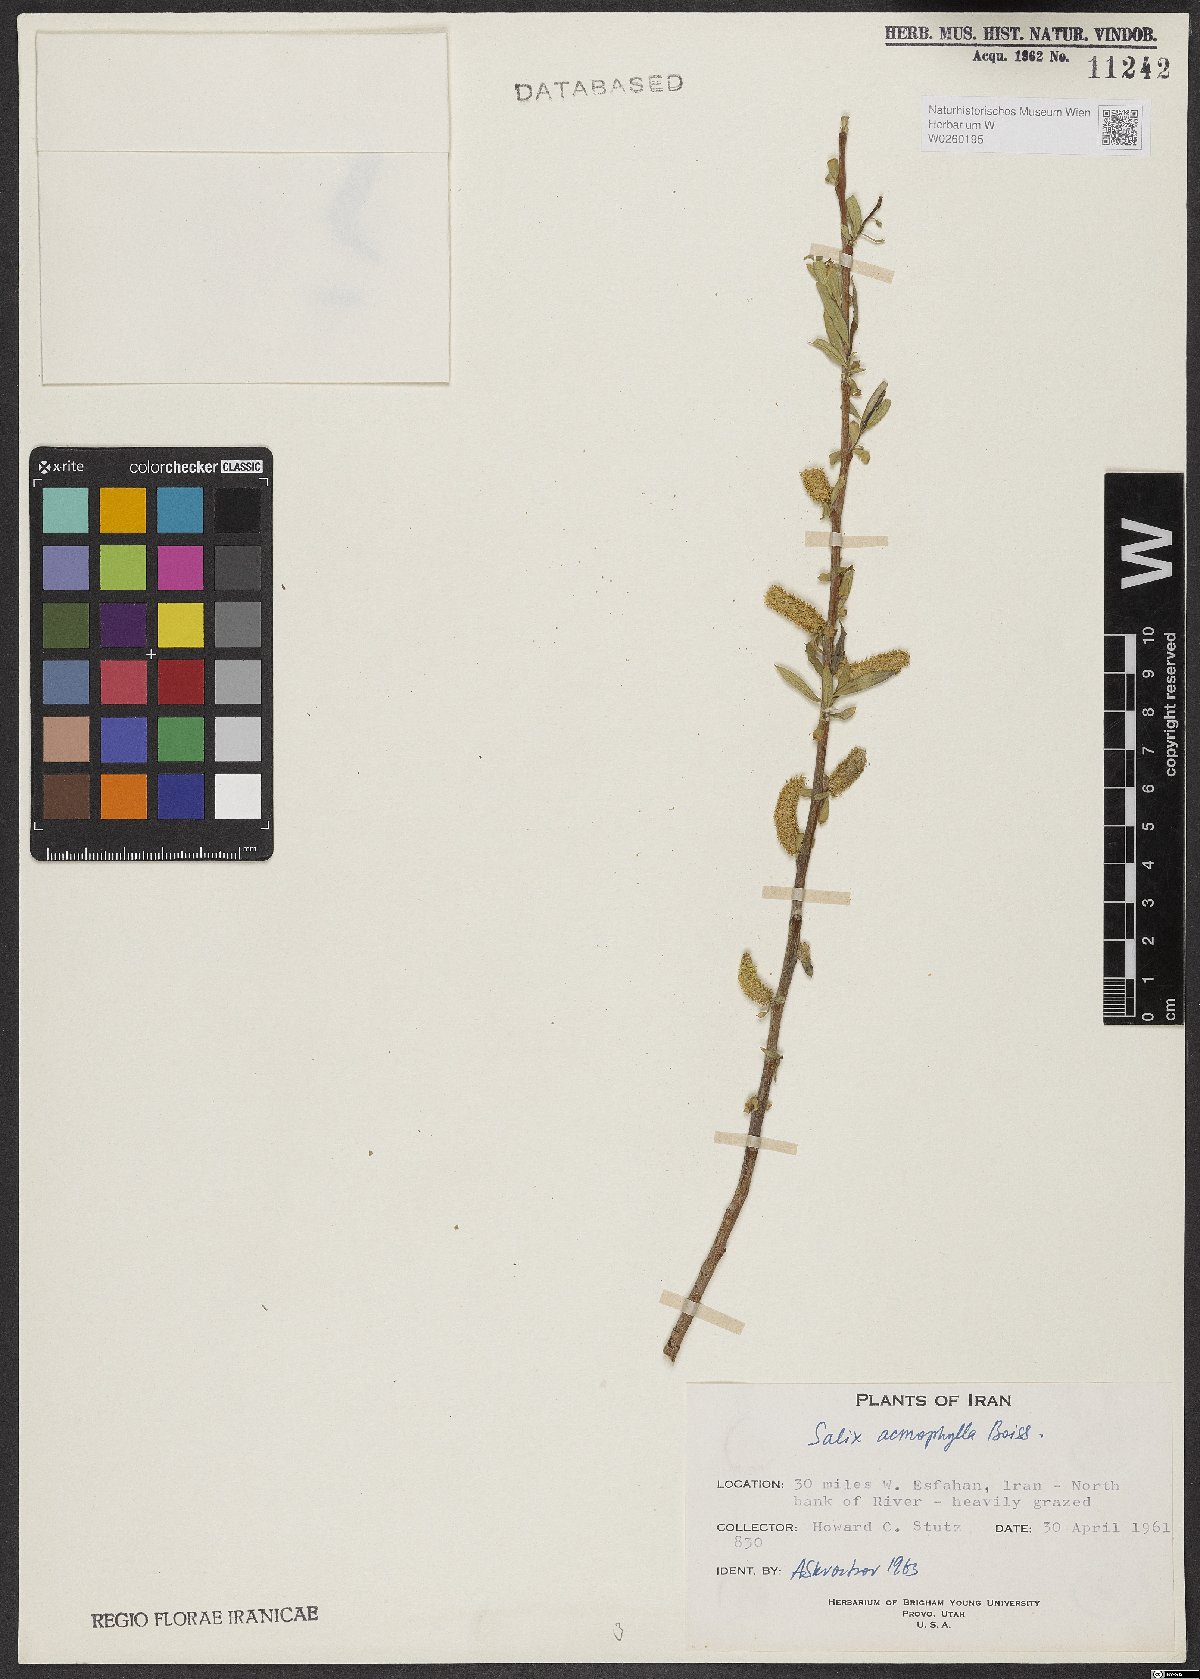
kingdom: Plantae
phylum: Tracheophyta
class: Magnoliopsida
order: Malpighiales
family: Salicaceae
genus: Salix
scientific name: Salix acmophylla
